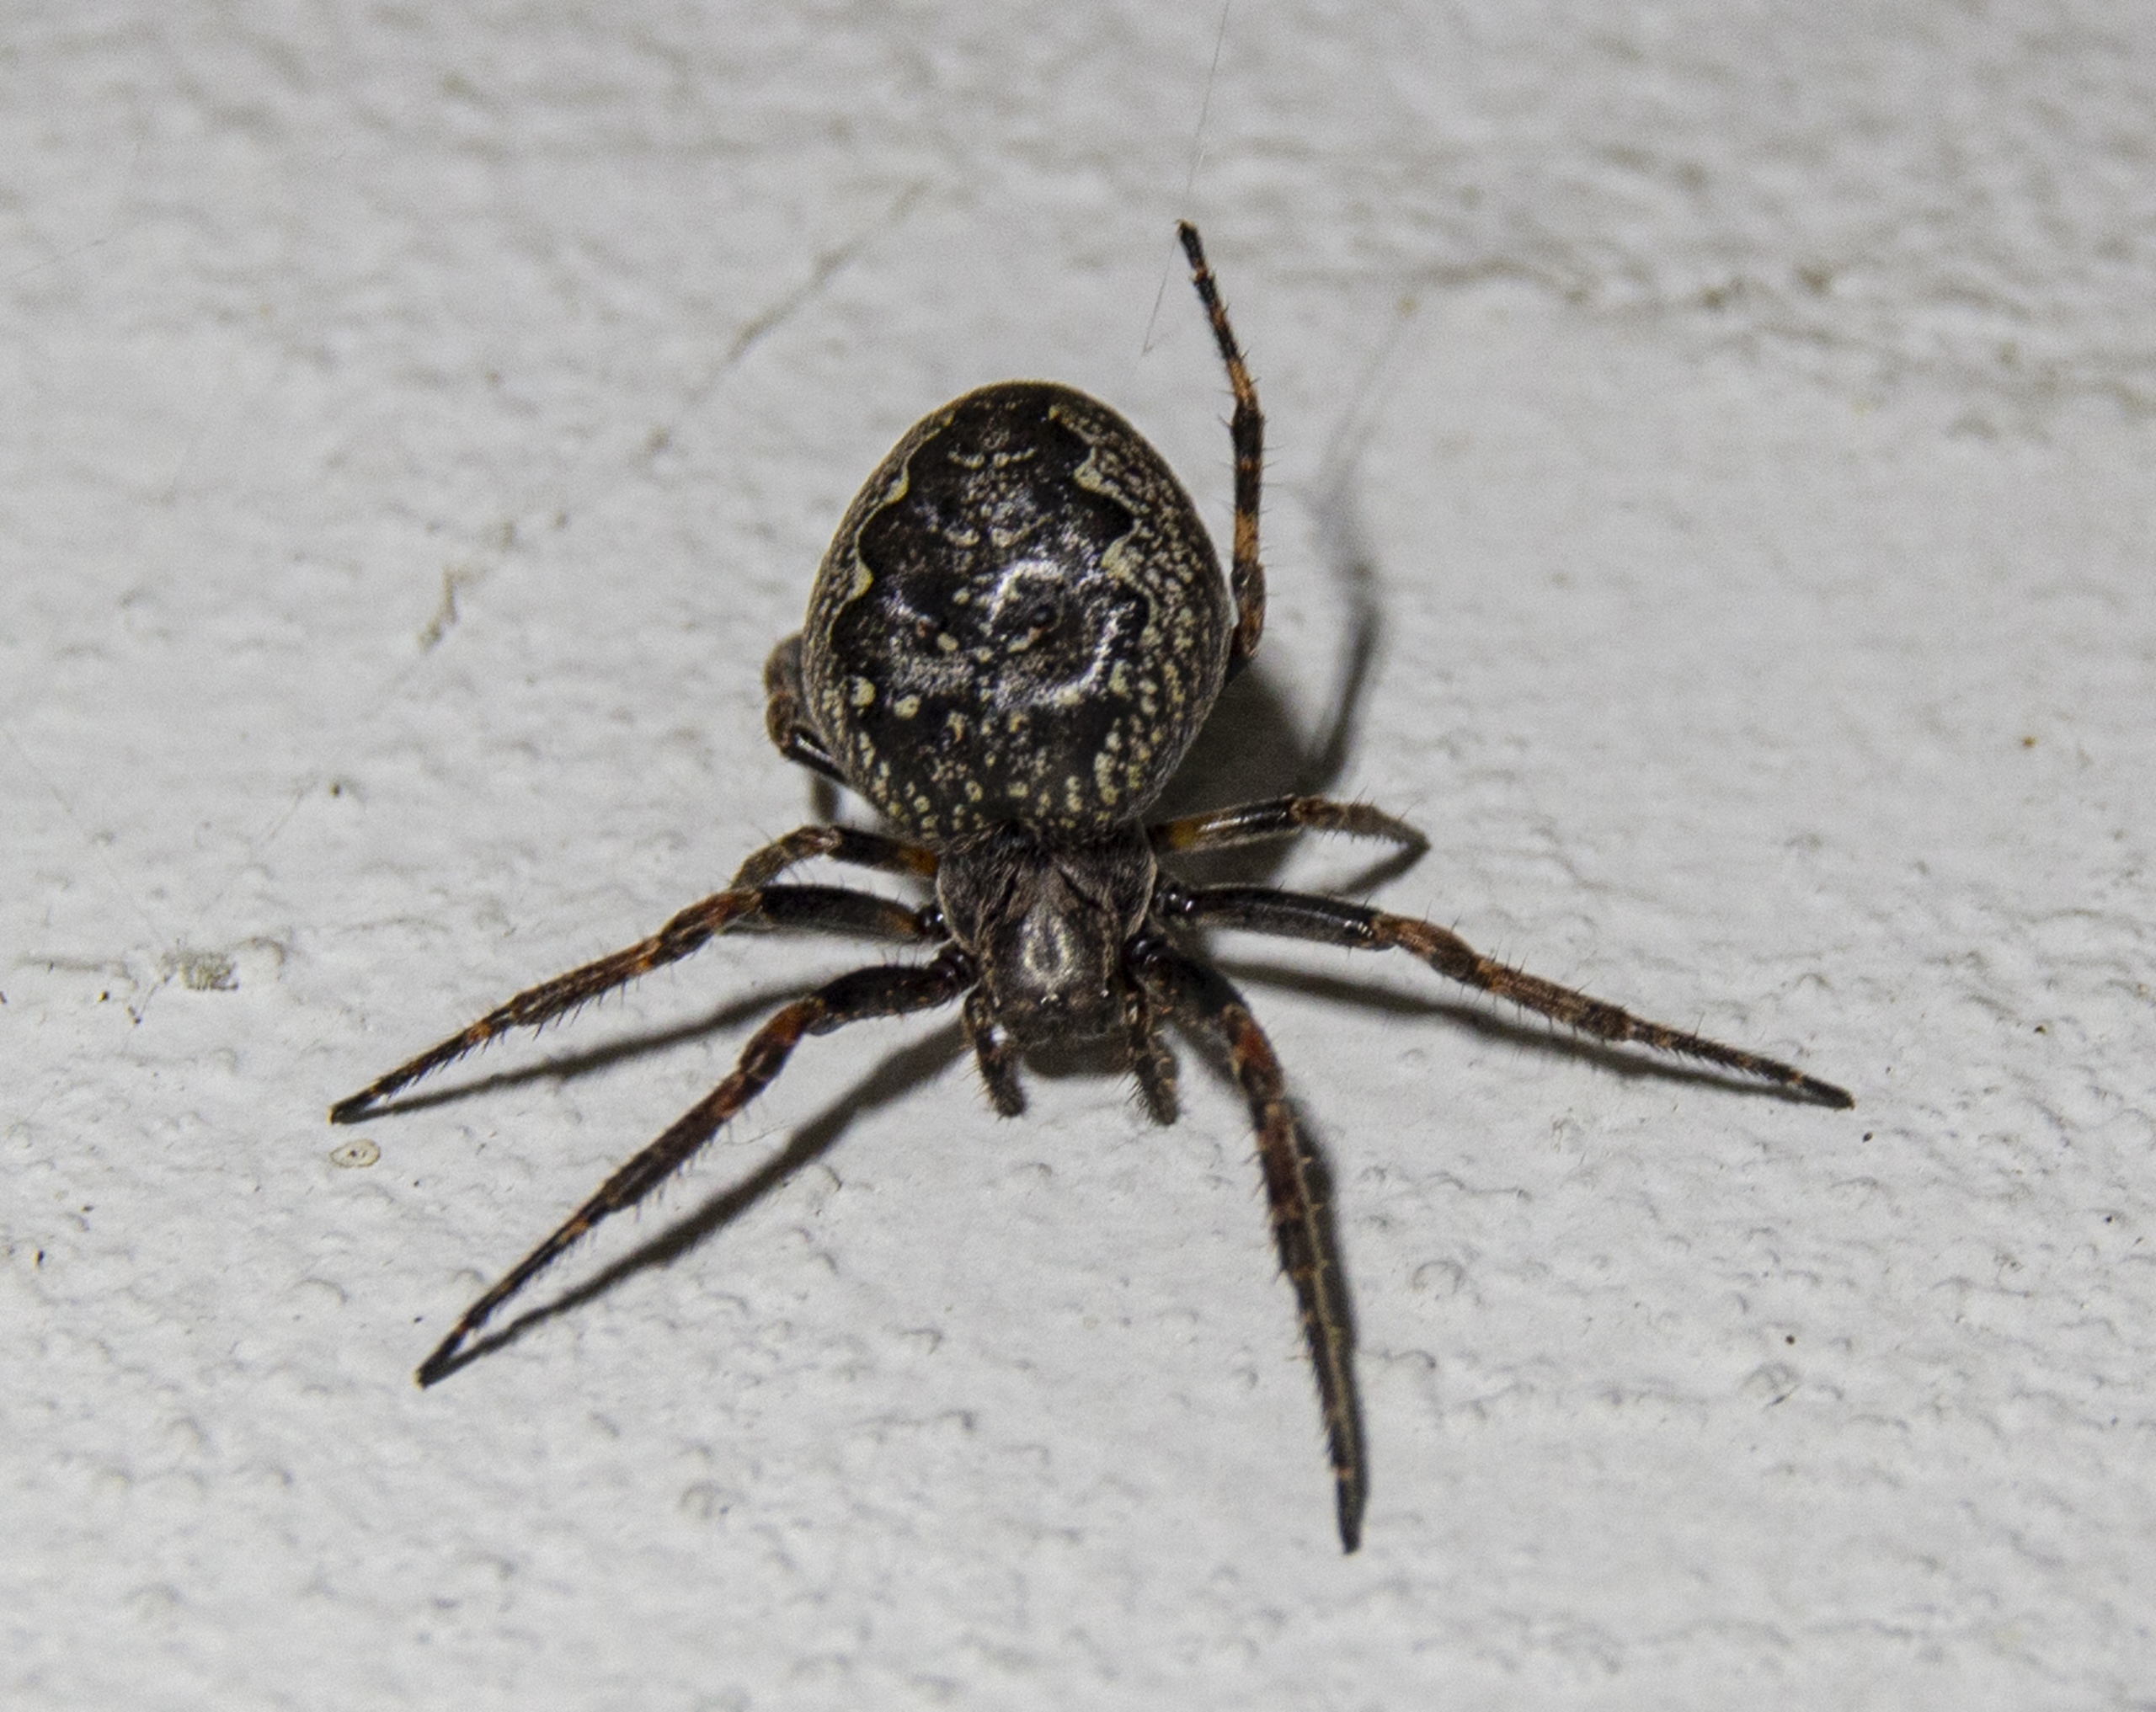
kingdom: Animalia
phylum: Arthropoda
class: Arachnida
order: Araneae
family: Araneidae
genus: Nuctenea
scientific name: Nuctenea umbratica
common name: Flad hjulspinder
